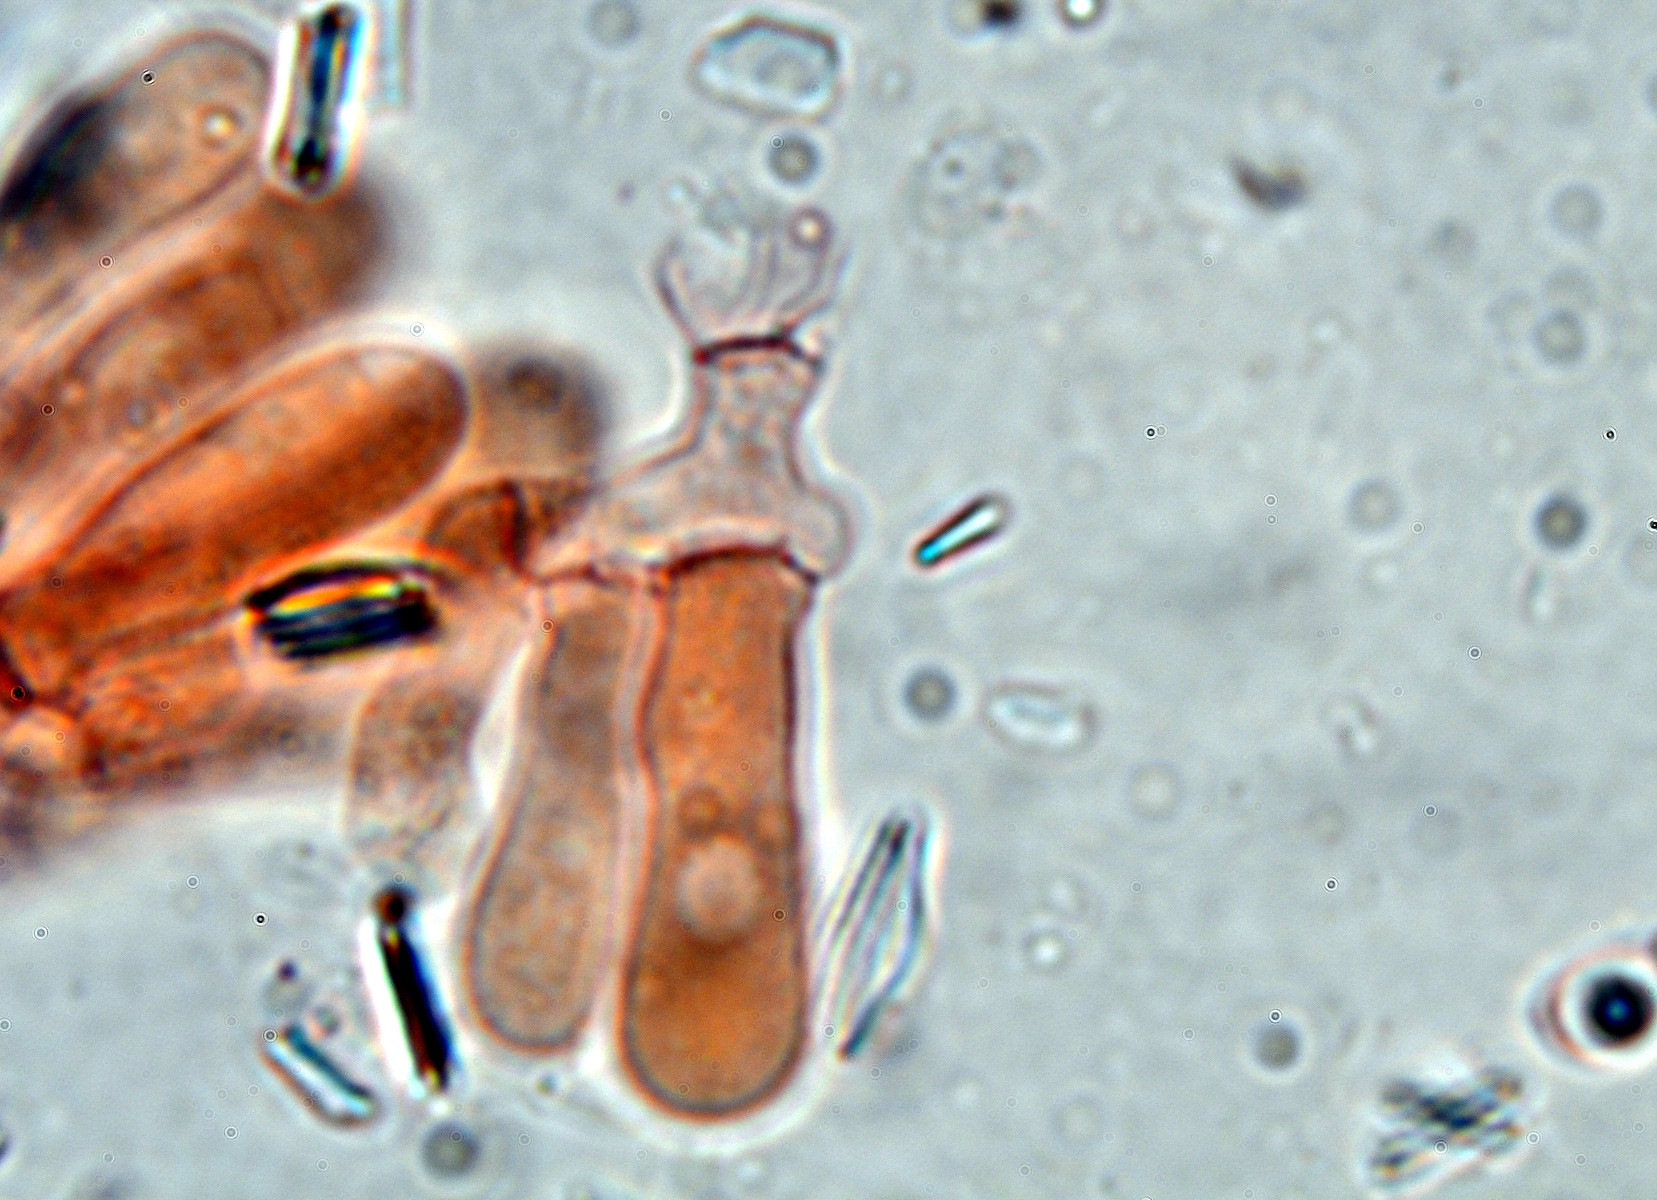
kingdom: Fungi
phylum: Basidiomycota
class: Agaricomycetes
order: Agaricales
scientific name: Agaricales
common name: champignonordenen
